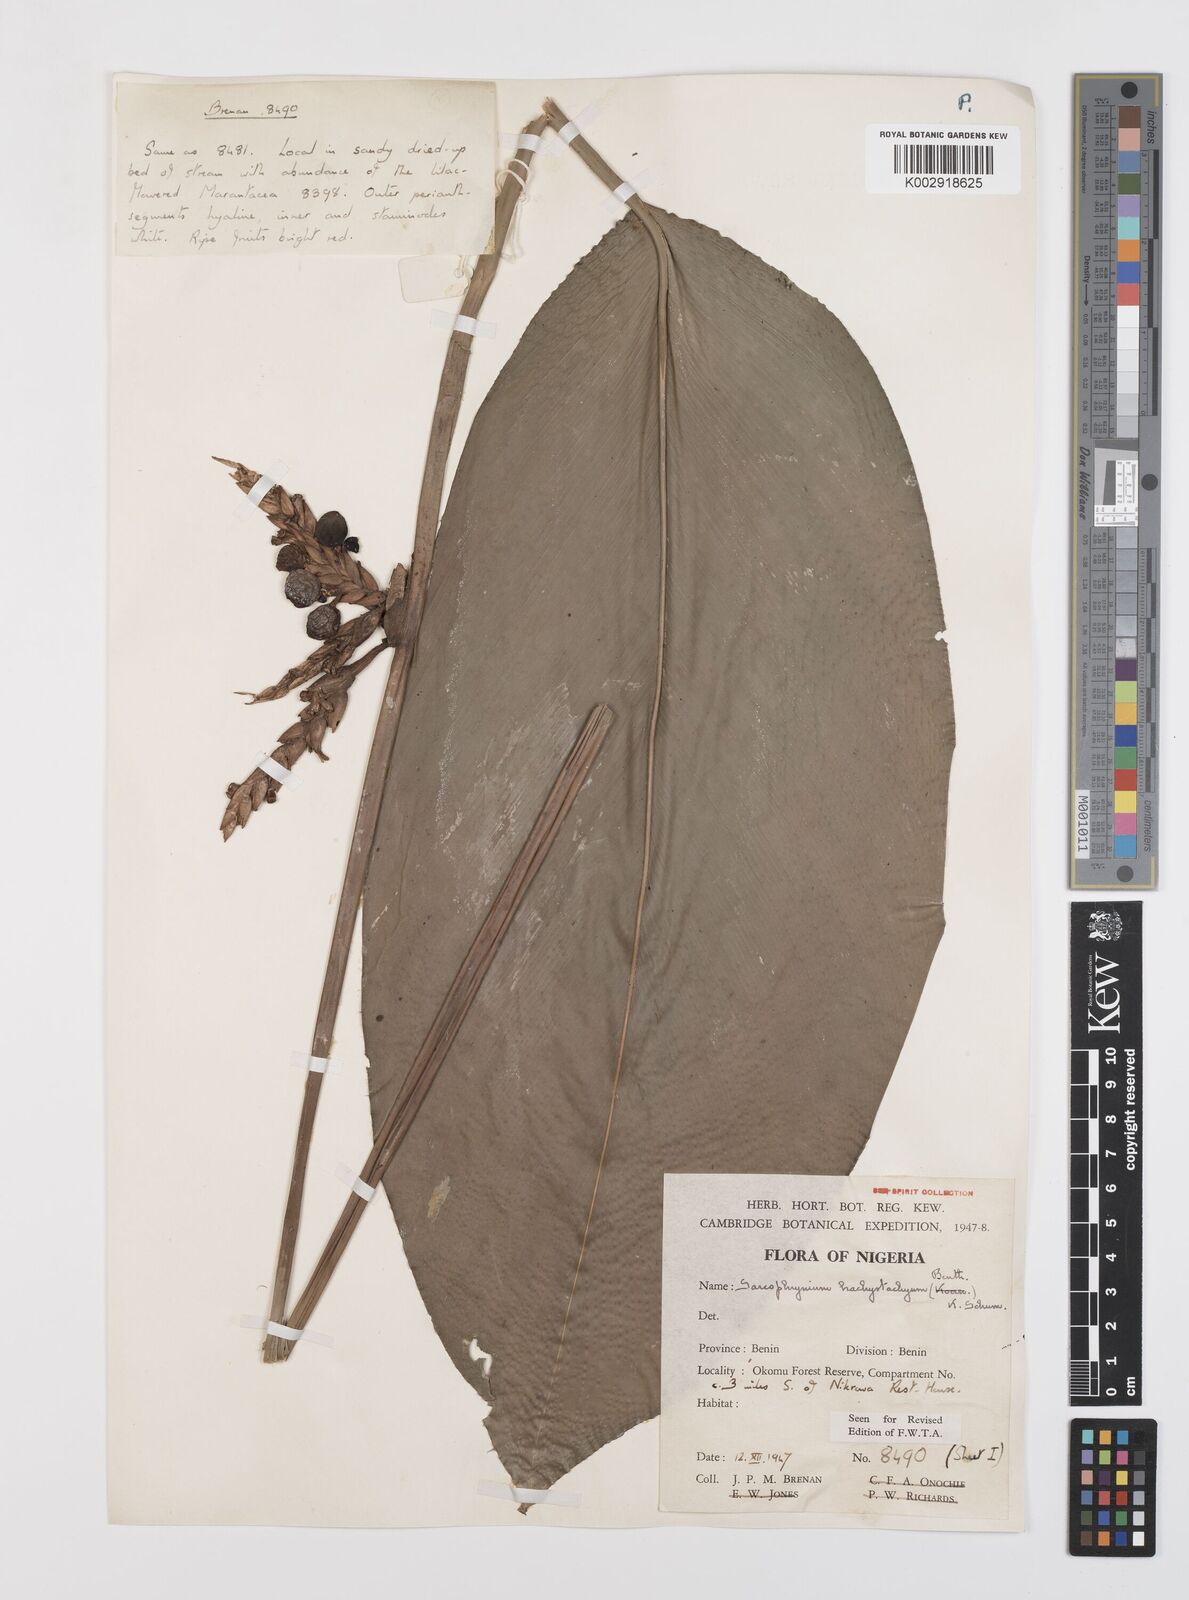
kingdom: Plantae
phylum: Tracheophyta
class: Liliopsida
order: Zingiberales
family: Marantaceae
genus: Sarcophrynium
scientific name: Sarcophrynium brachystachyum
